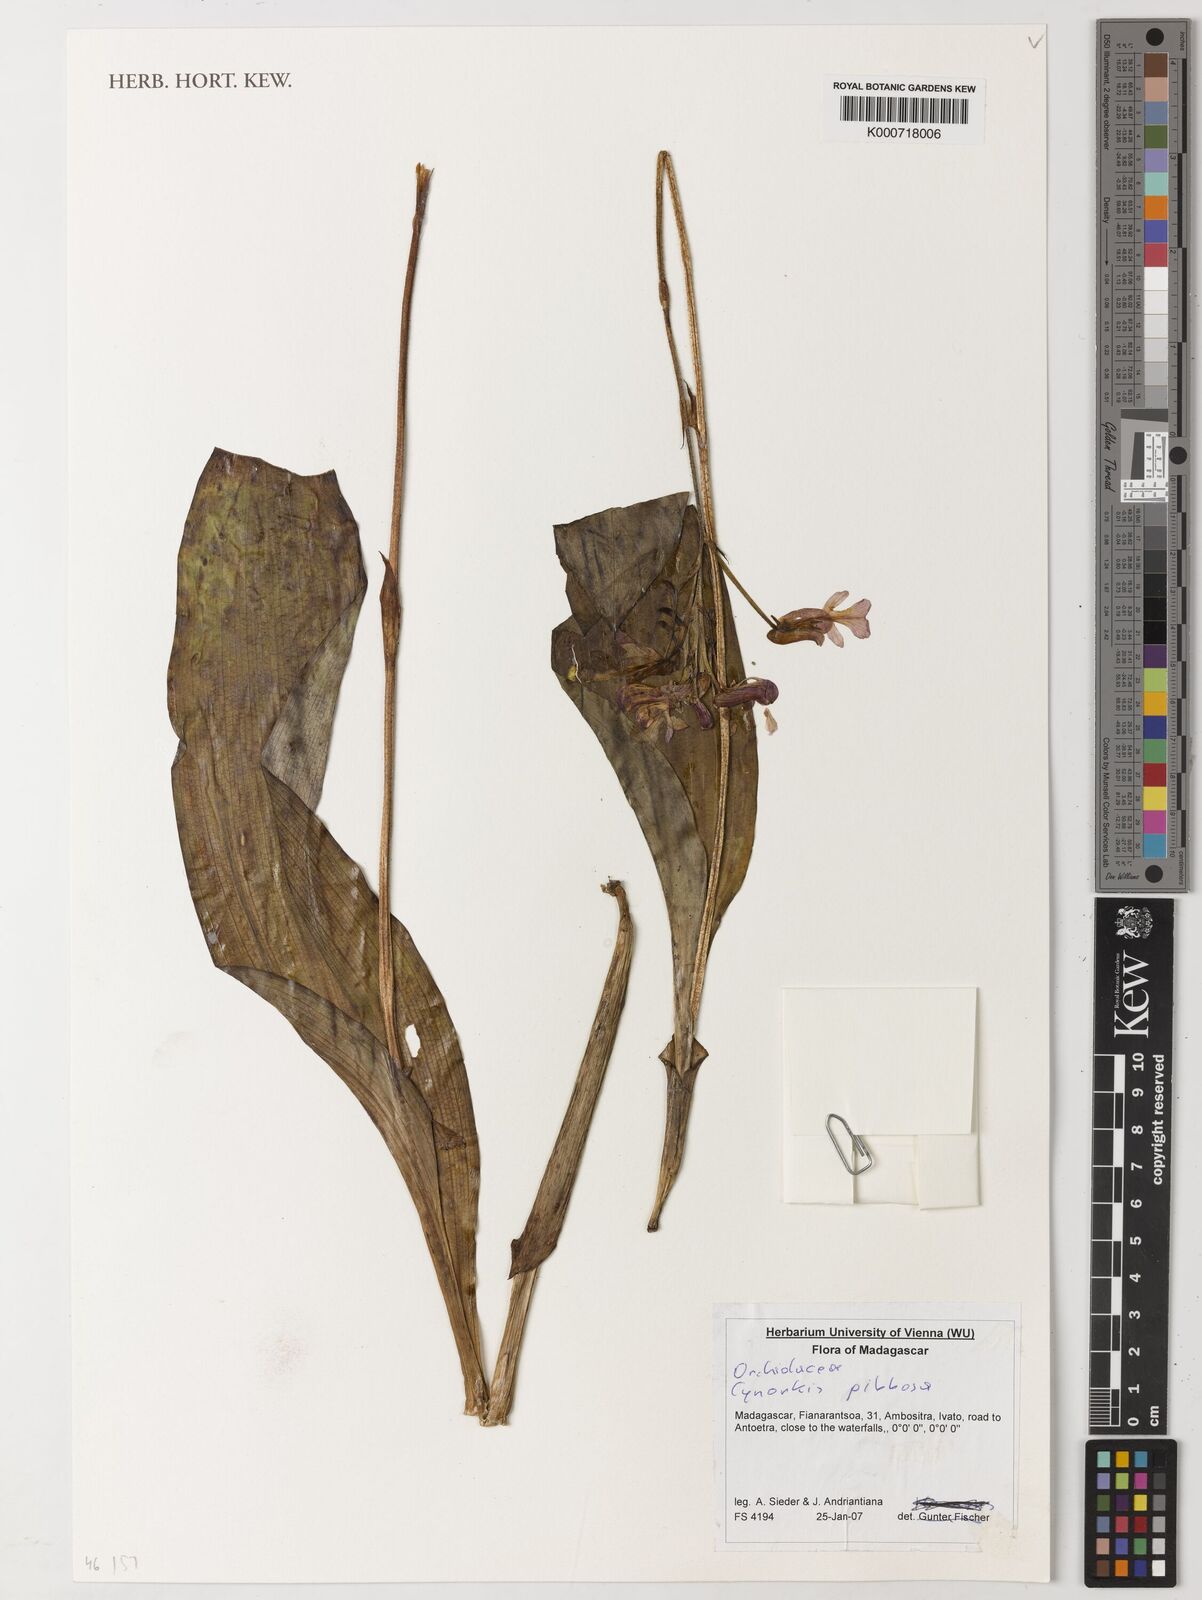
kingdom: Plantae
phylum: Tracheophyta
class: Liliopsida
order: Asparagales
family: Orchidaceae
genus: Cynorkis
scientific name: Cynorkis gibbosa
